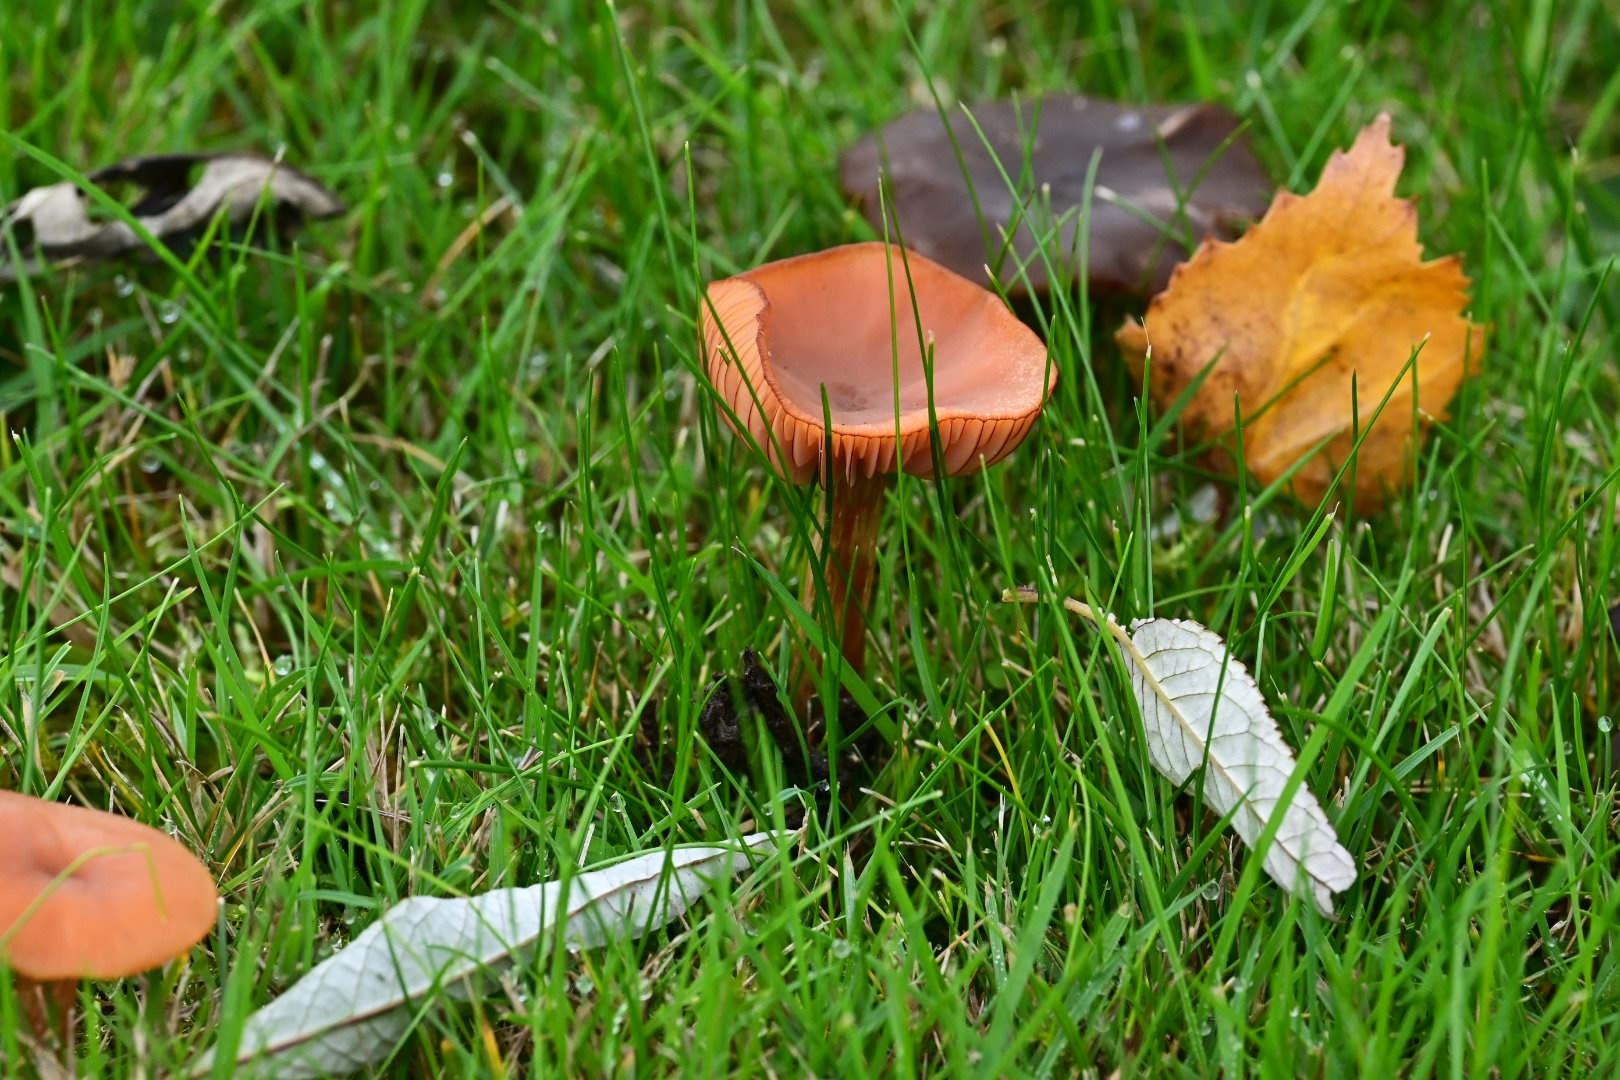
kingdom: Fungi
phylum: Basidiomycota
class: Agaricomycetes
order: Agaricales
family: Hydnangiaceae
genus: Laccaria
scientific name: Laccaria laccata
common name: rød ametysthat
